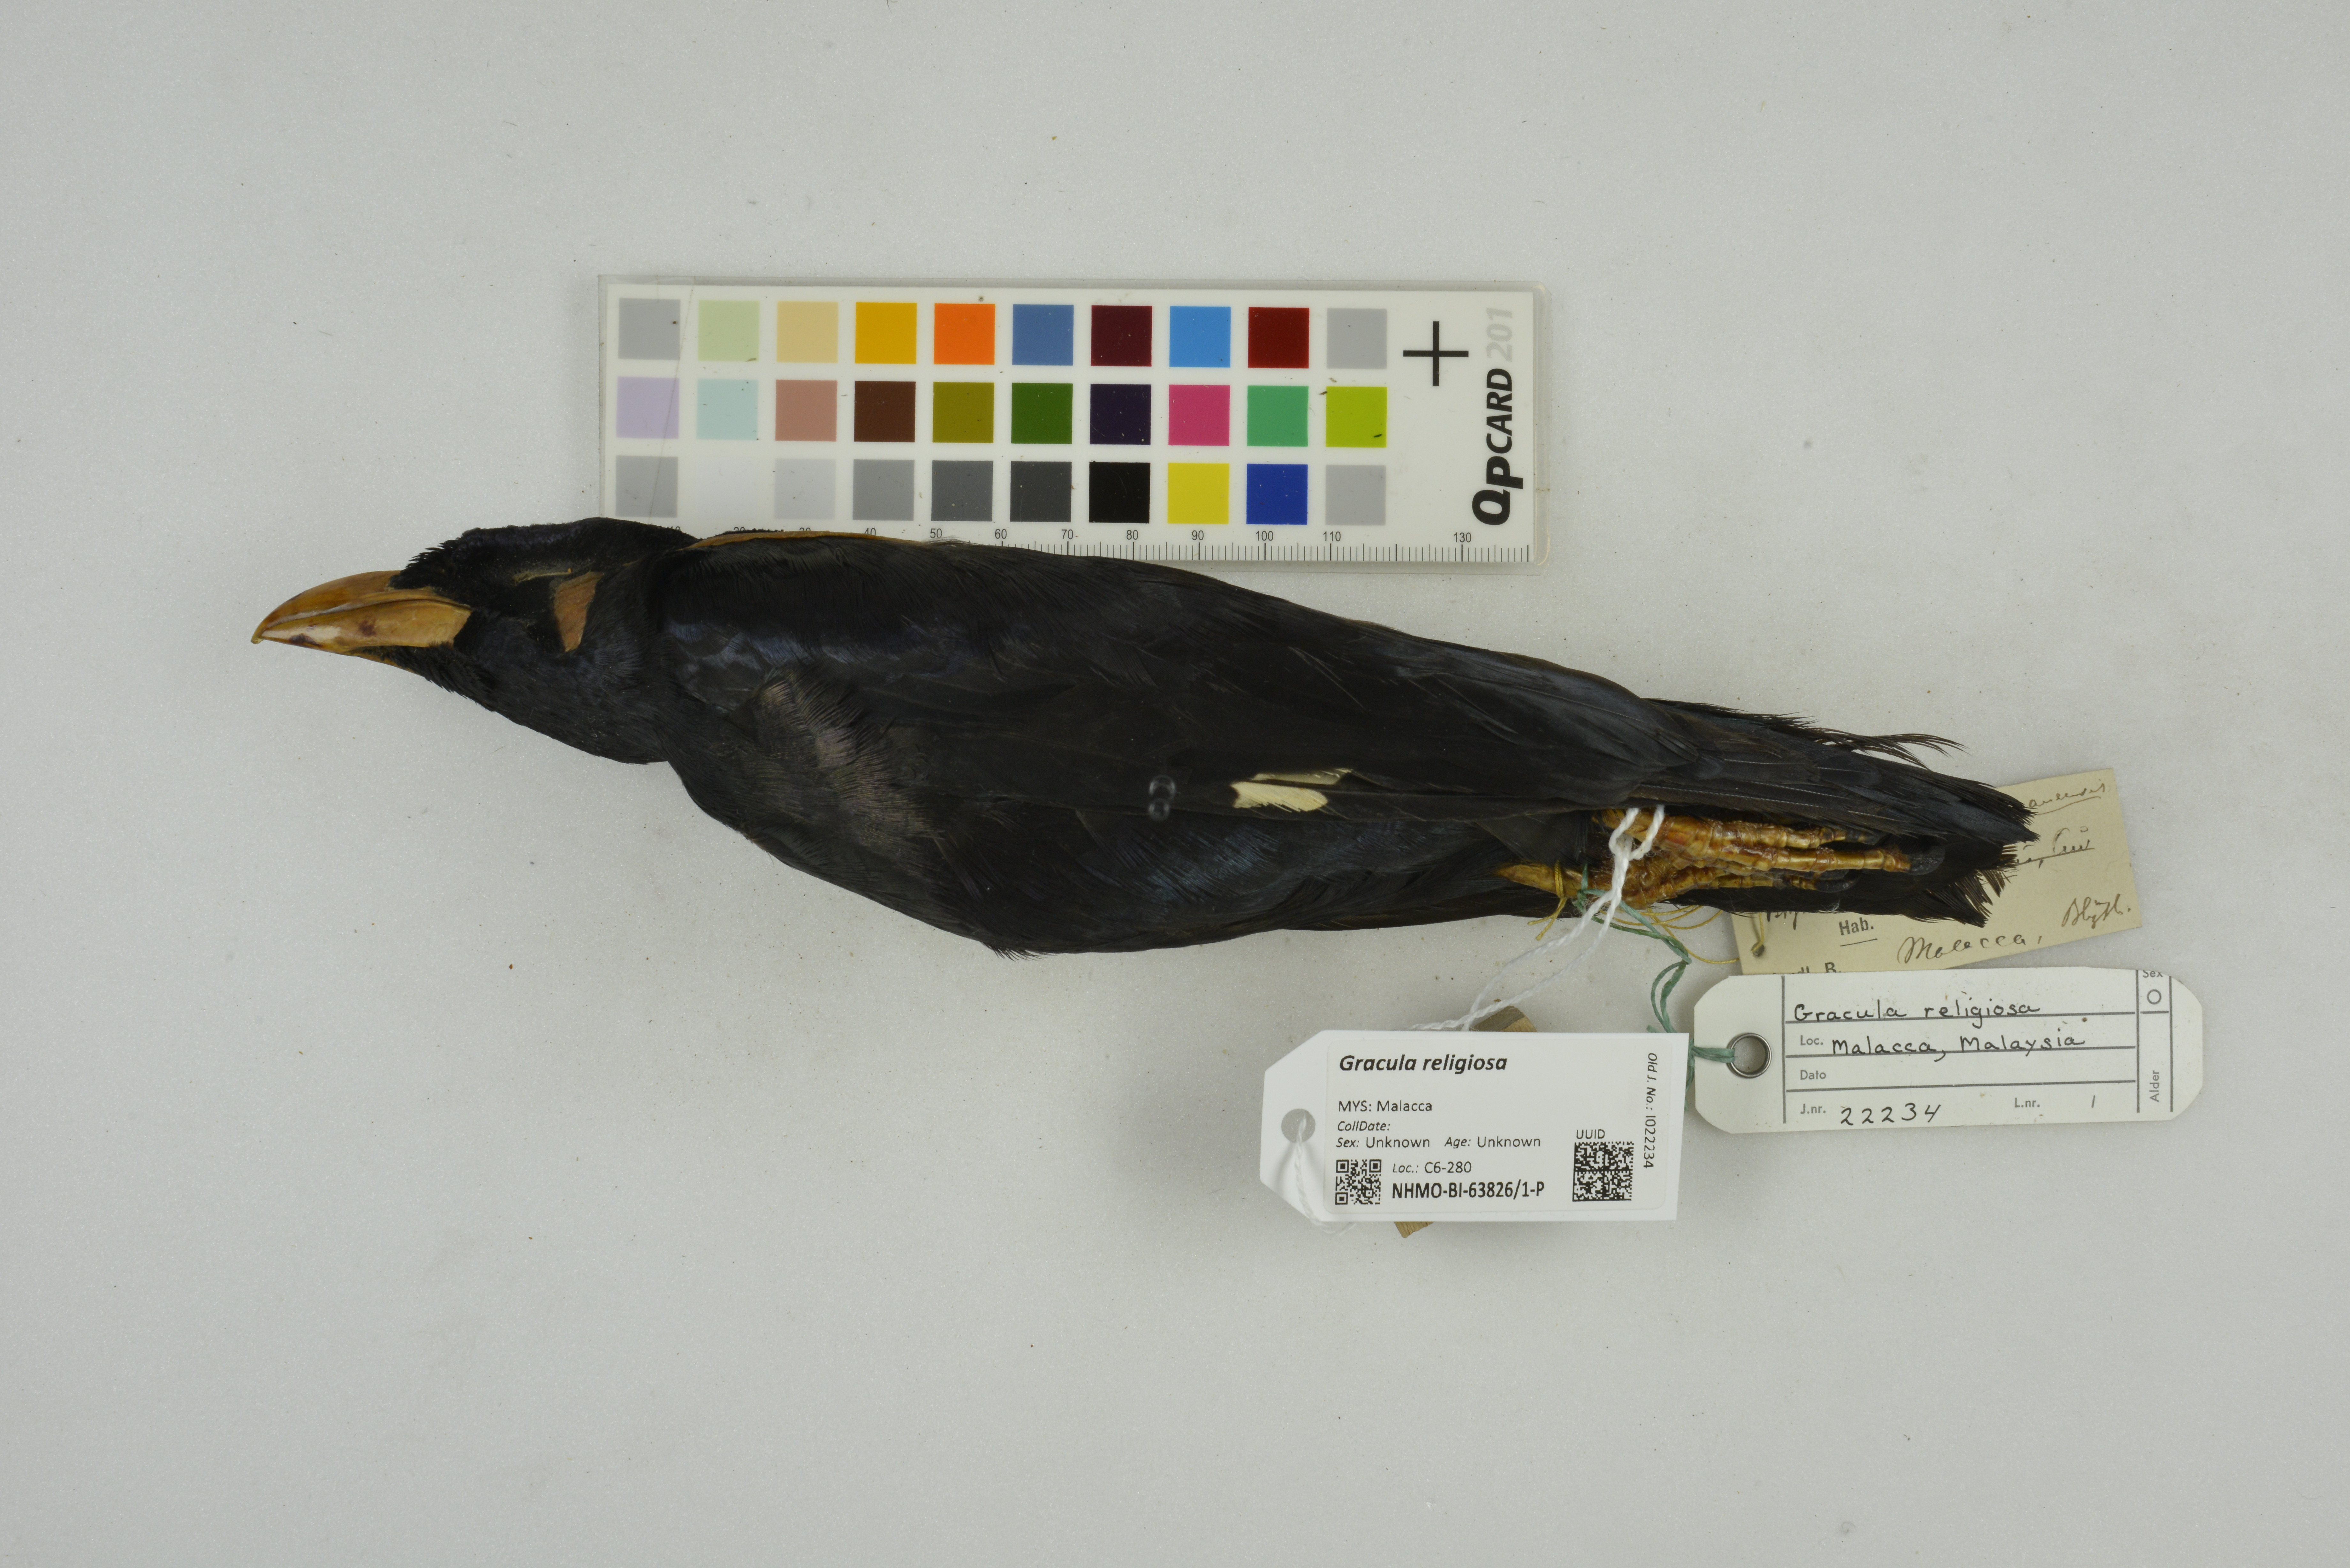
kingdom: Animalia
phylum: Chordata
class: Aves
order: Passeriformes
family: Sturnidae
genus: Gracula
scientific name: Gracula religiosa
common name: Common hill myna
